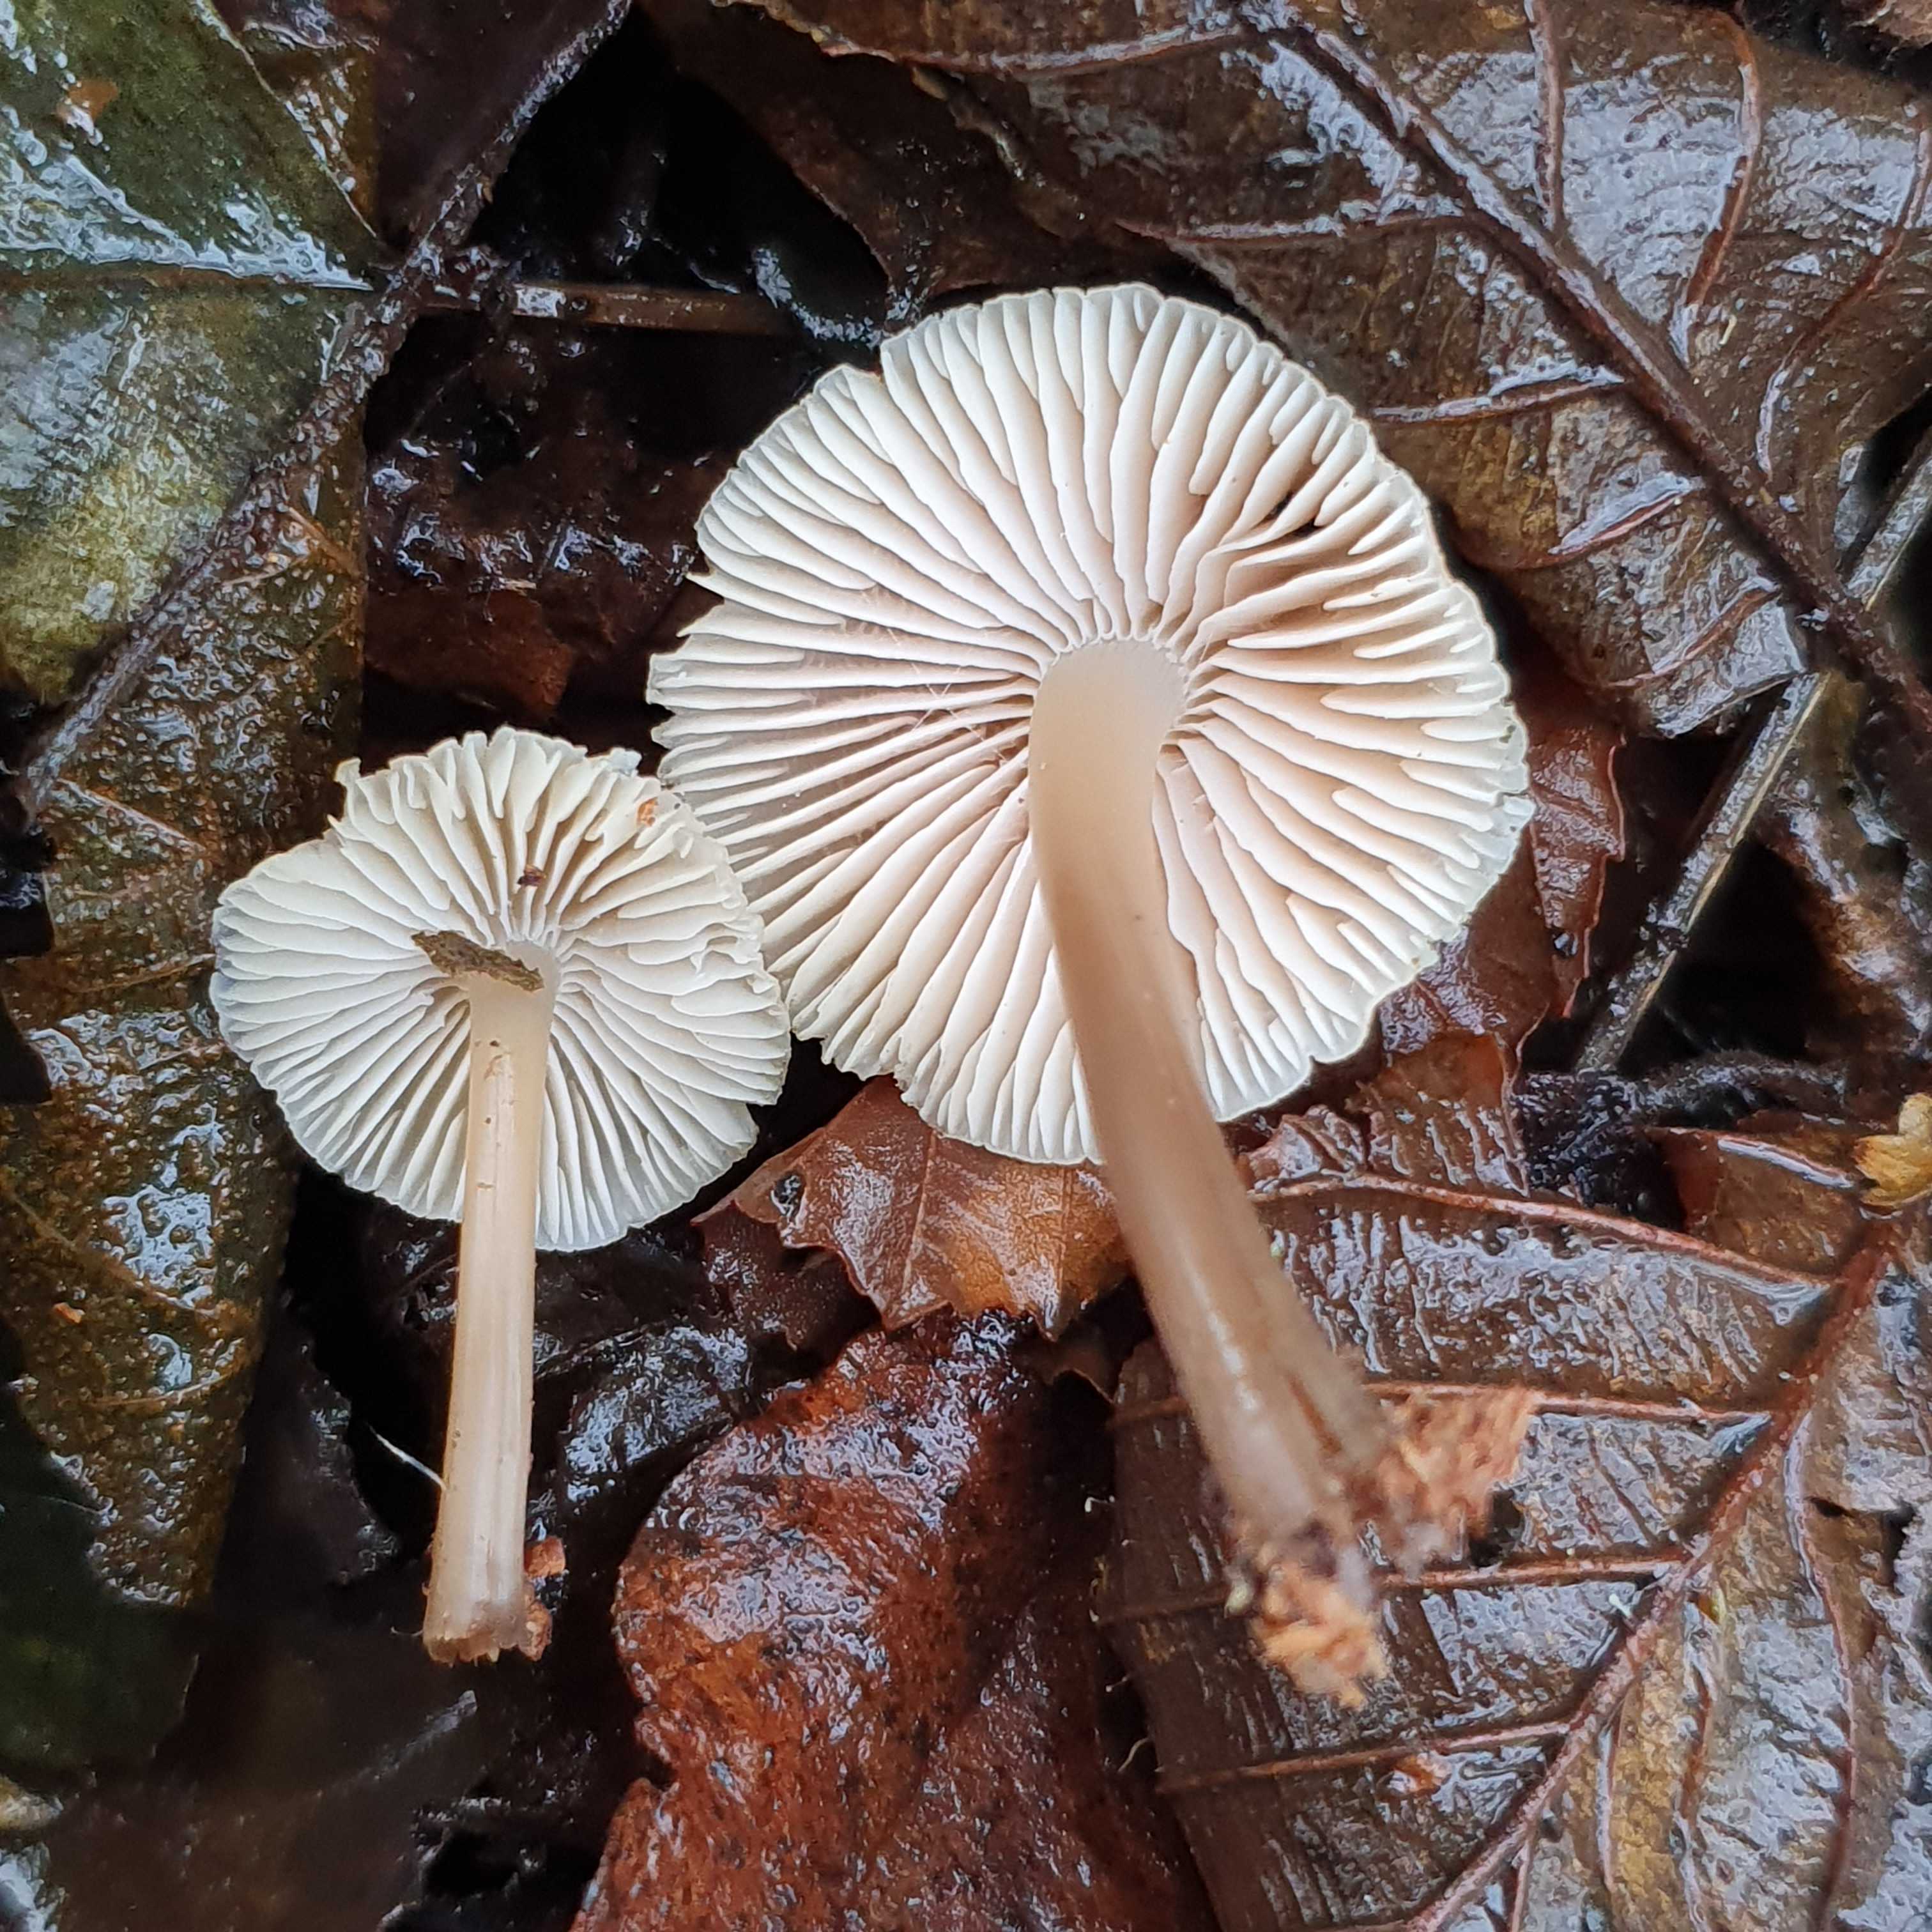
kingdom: Fungi
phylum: Basidiomycota
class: Agaricomycetes
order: Agaricales
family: Mycenaceae
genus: Mycena
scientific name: Mycena galericulata
